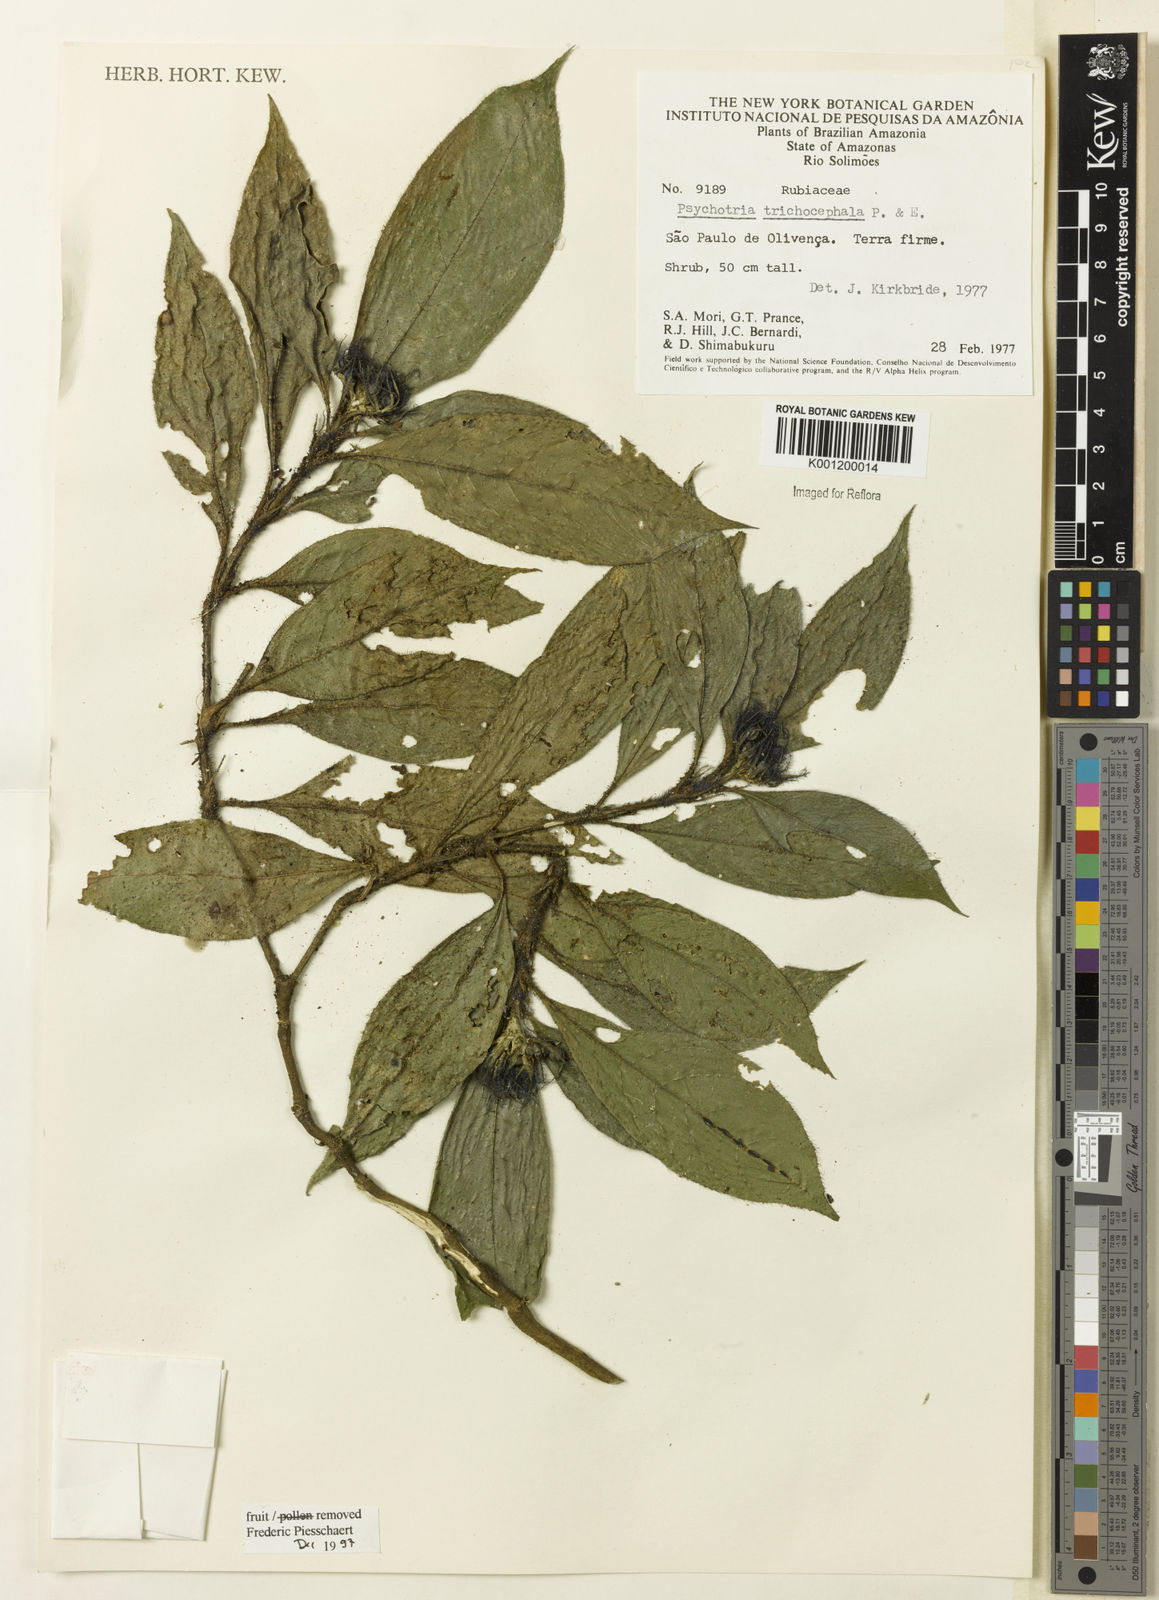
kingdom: Plantae
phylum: Tracheophyta
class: Magnoliopsida
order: Gentianales
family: Rubiaceae
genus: Palicourea
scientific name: Palicourea trichocephala
